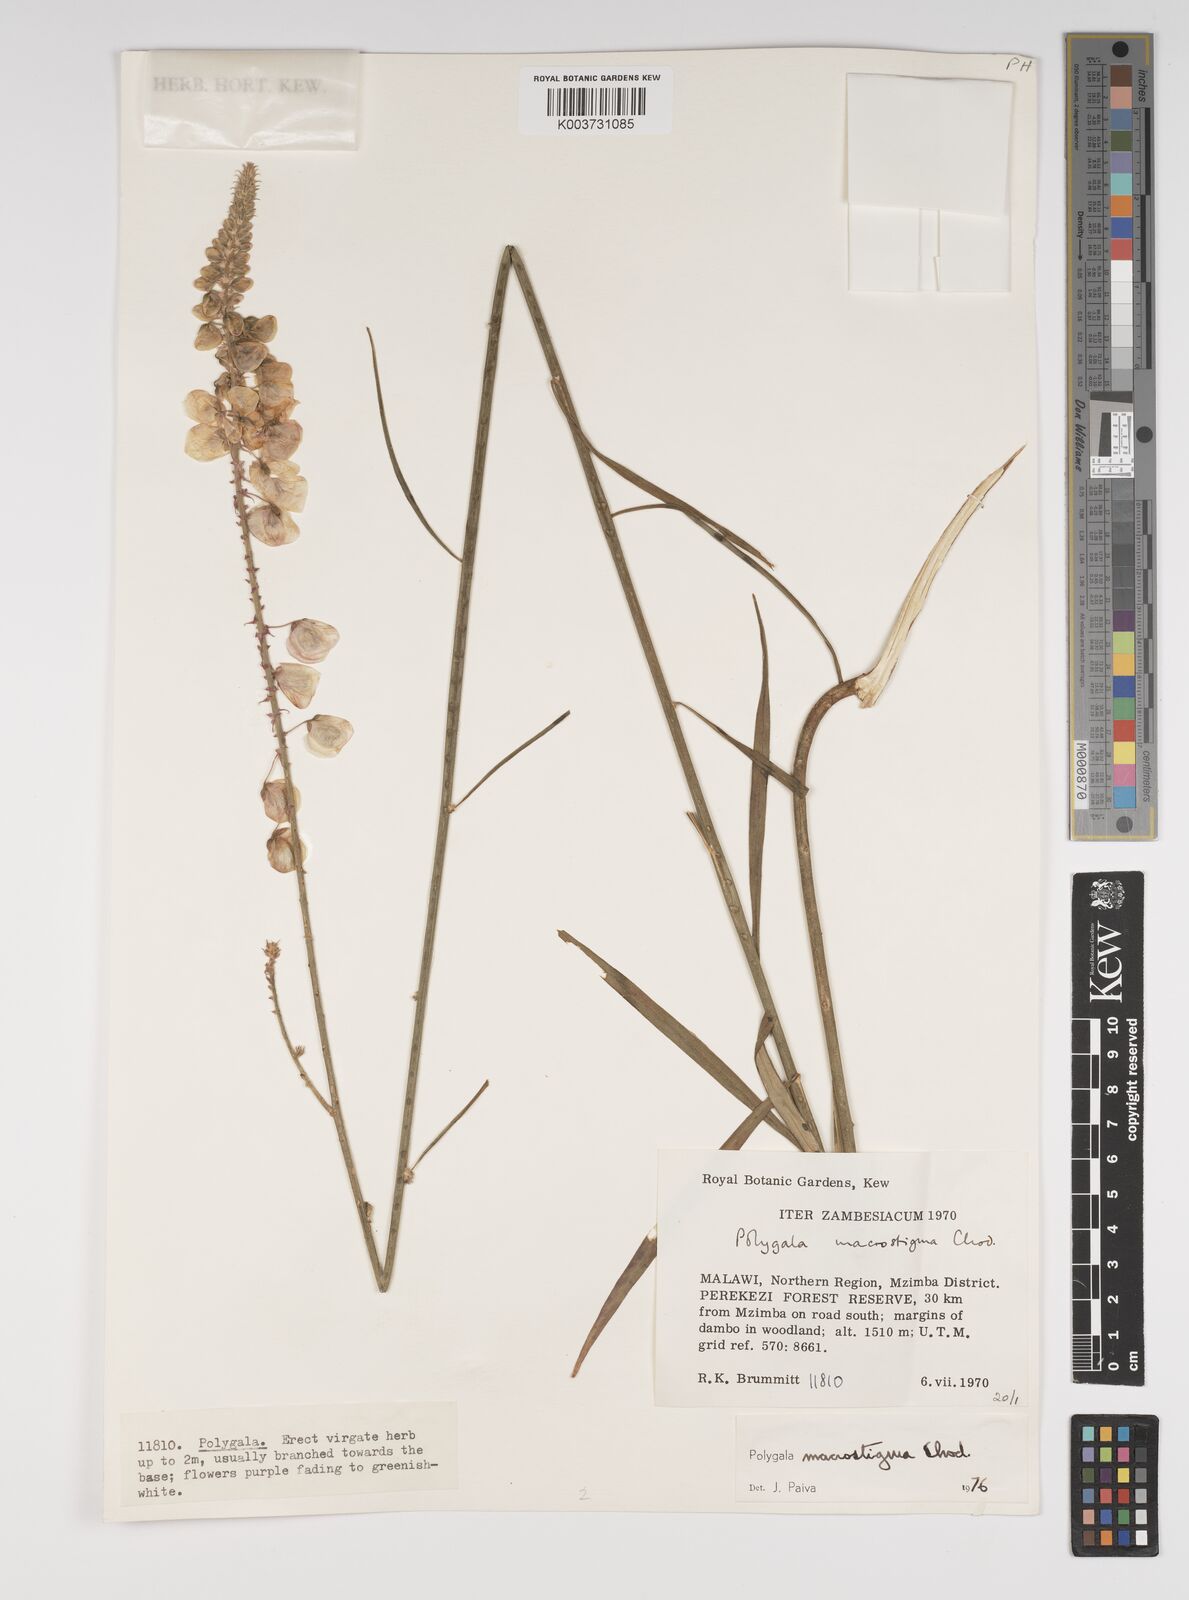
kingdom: Plantae
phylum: Tracheophyta
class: Magnoliopsida
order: Fabales
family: Polygalaceae
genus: Polygala
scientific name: Polygala macrostigma
